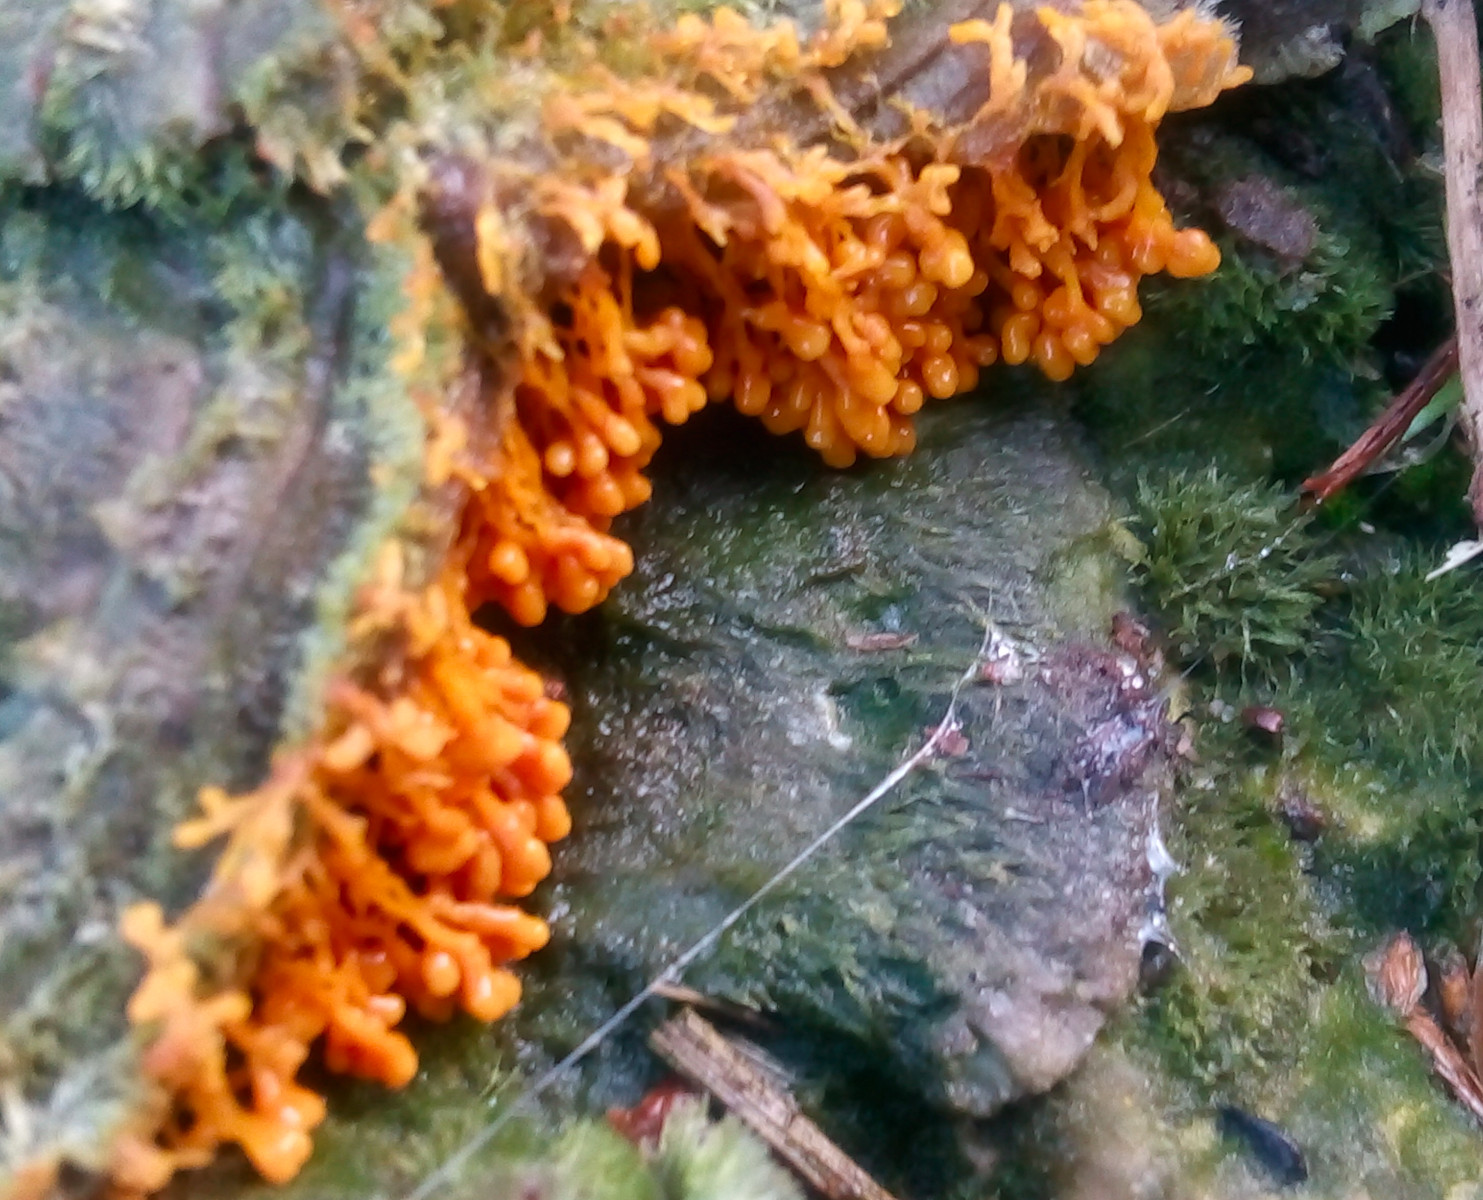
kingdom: Protozoa
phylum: Mycetozoa
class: Myxomycetes
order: Physarales
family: Physaraceae
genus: Badhamia
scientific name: Badhamia utricularis
